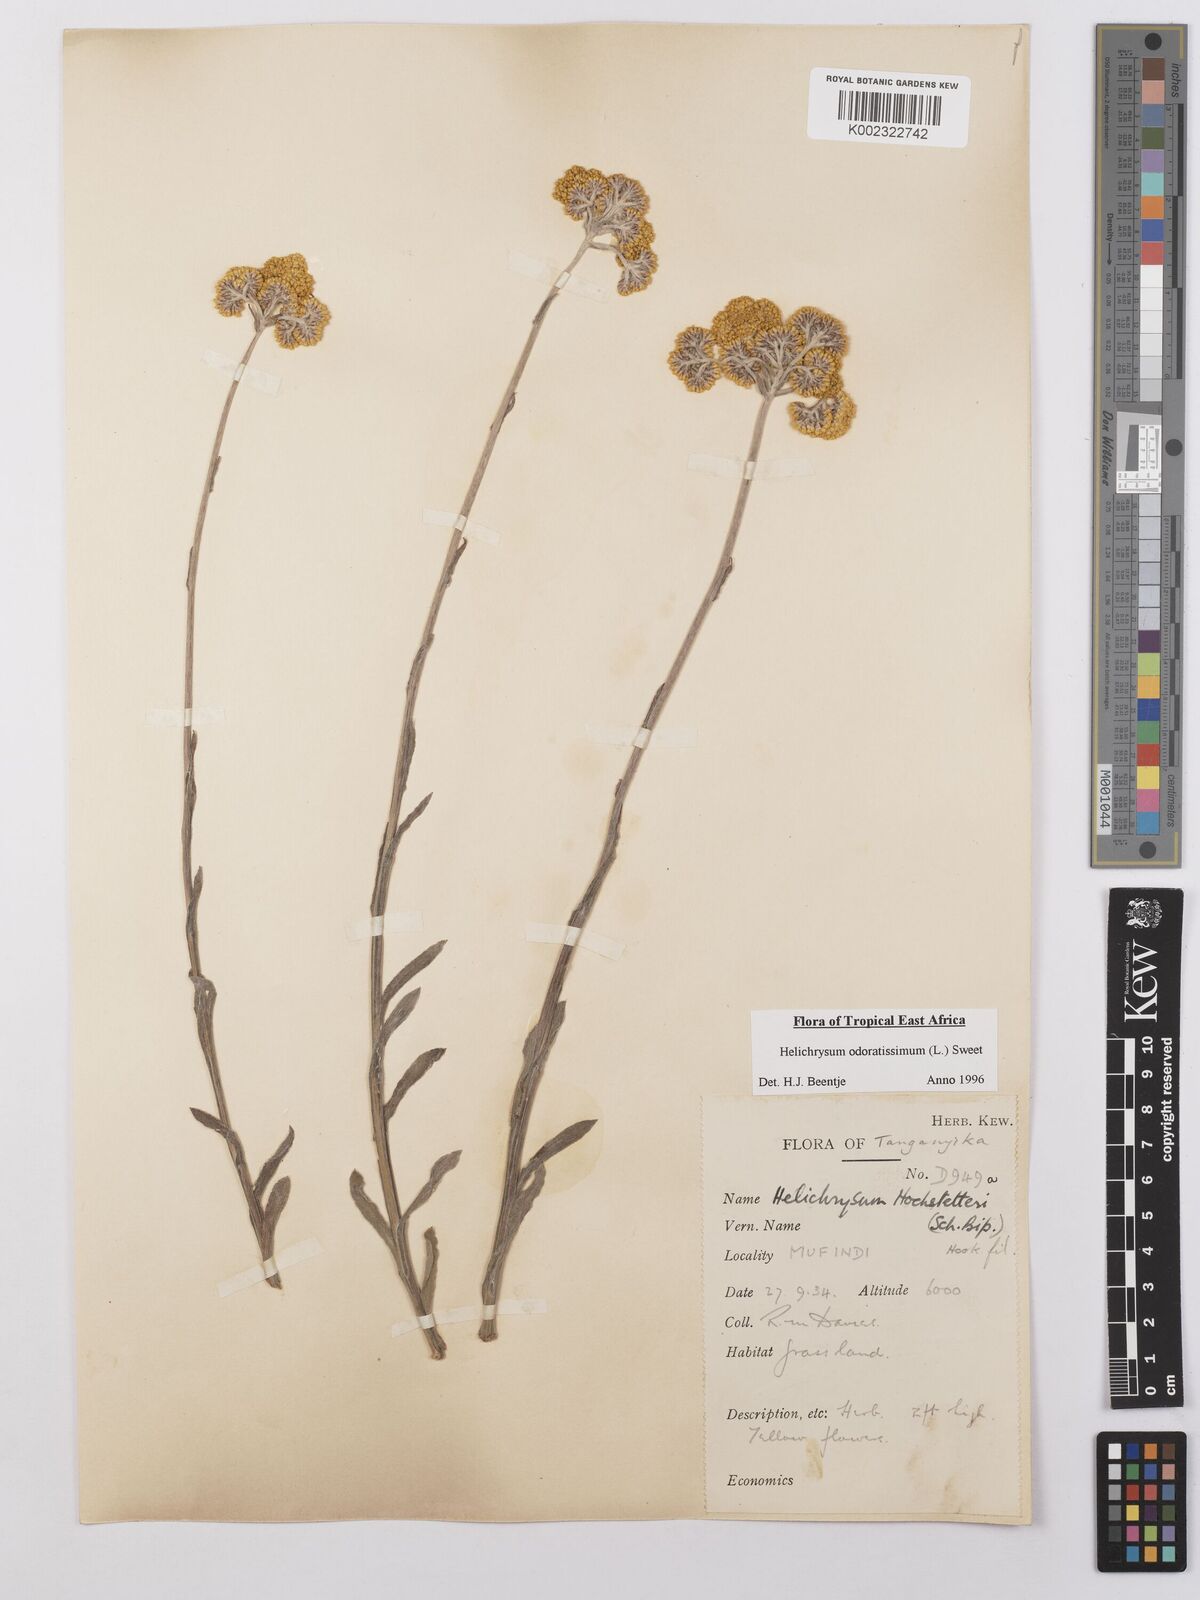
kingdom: Plantae
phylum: Tracheophyta
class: Magnoliopsida
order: Asterales
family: Asteraceae
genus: Helichrysum
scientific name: Helichrysum odoratissimum
